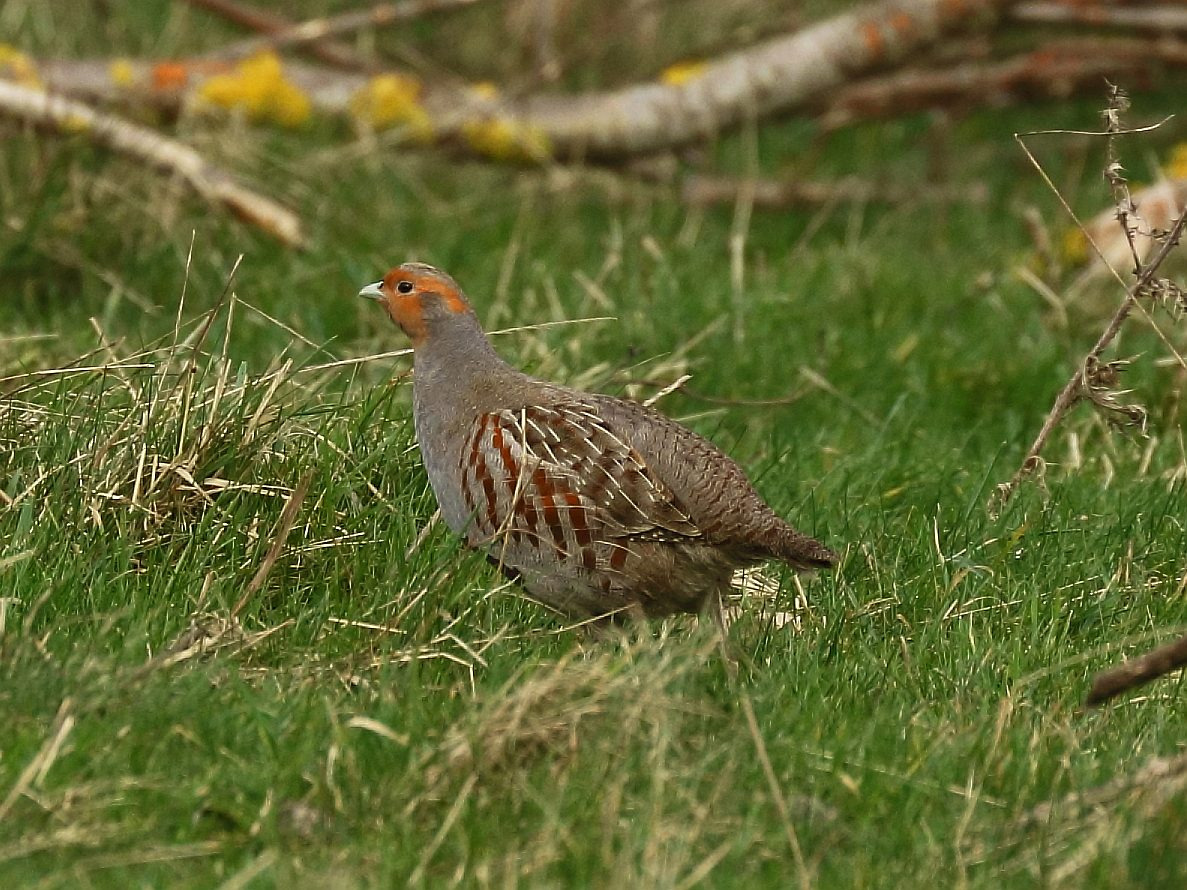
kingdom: Animalia
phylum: Chordata
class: Aves
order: Galliformes
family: Phasianidae
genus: Perdix
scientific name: Perdix perdix
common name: Agerhøne
